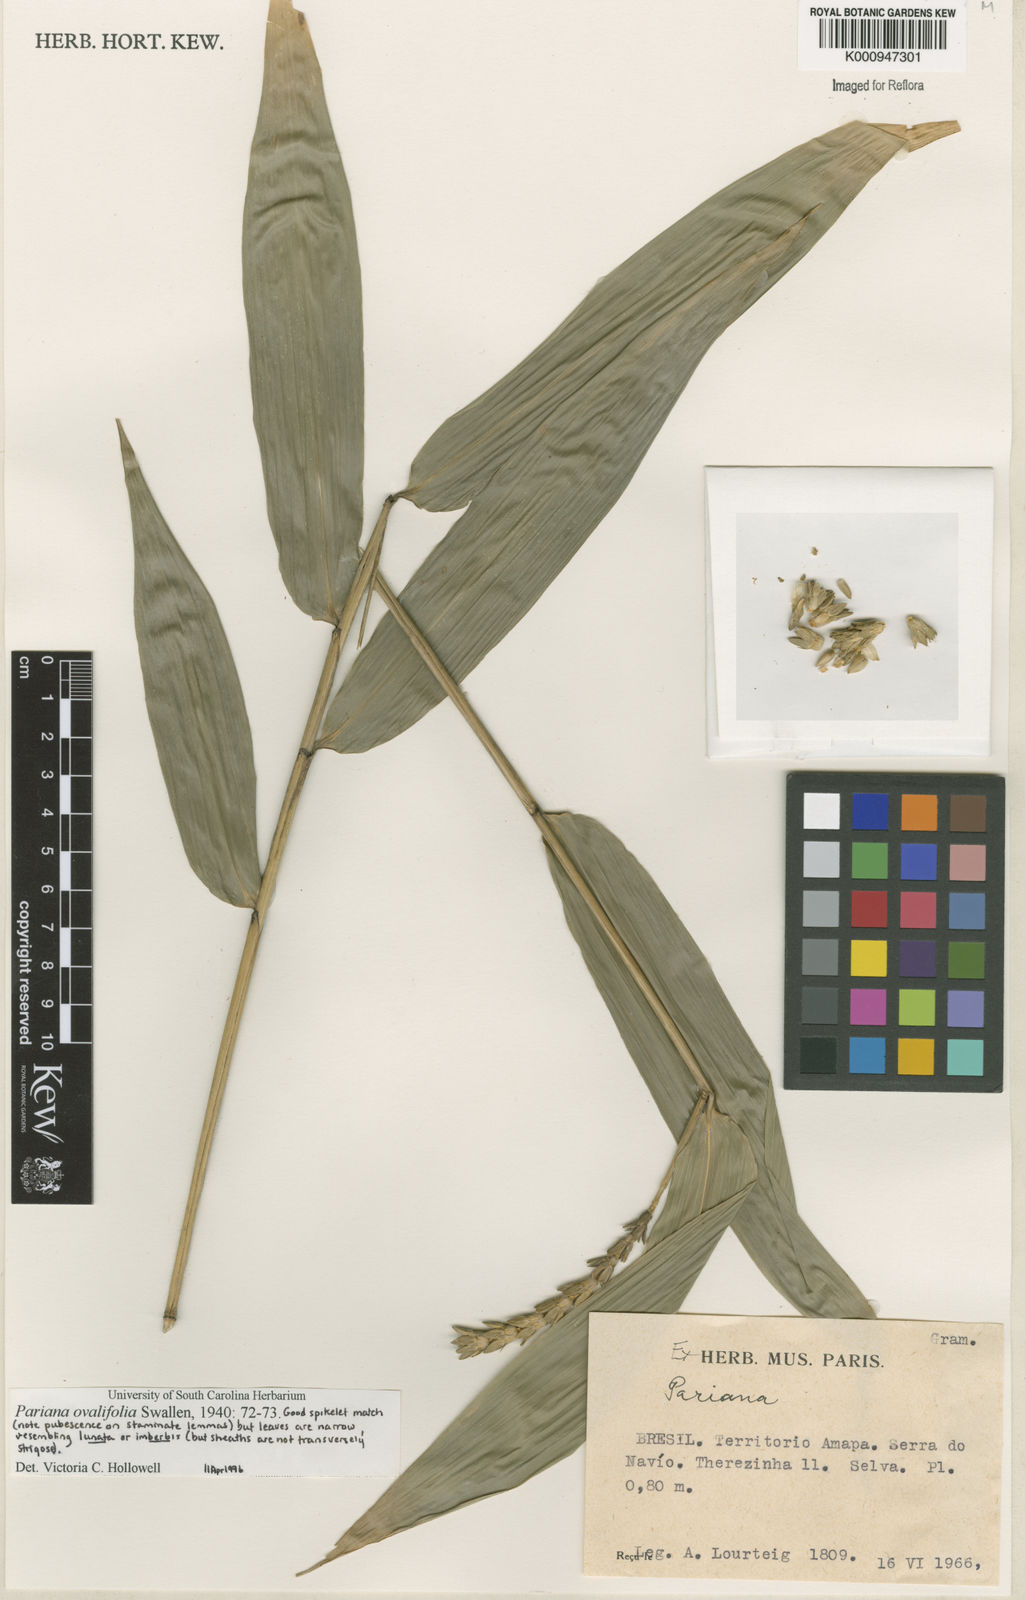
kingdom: Plantae
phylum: Tracheophyta
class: Liliopsida
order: Poales
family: Poaceae
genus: Pariana
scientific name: Pariana ovalifolia
